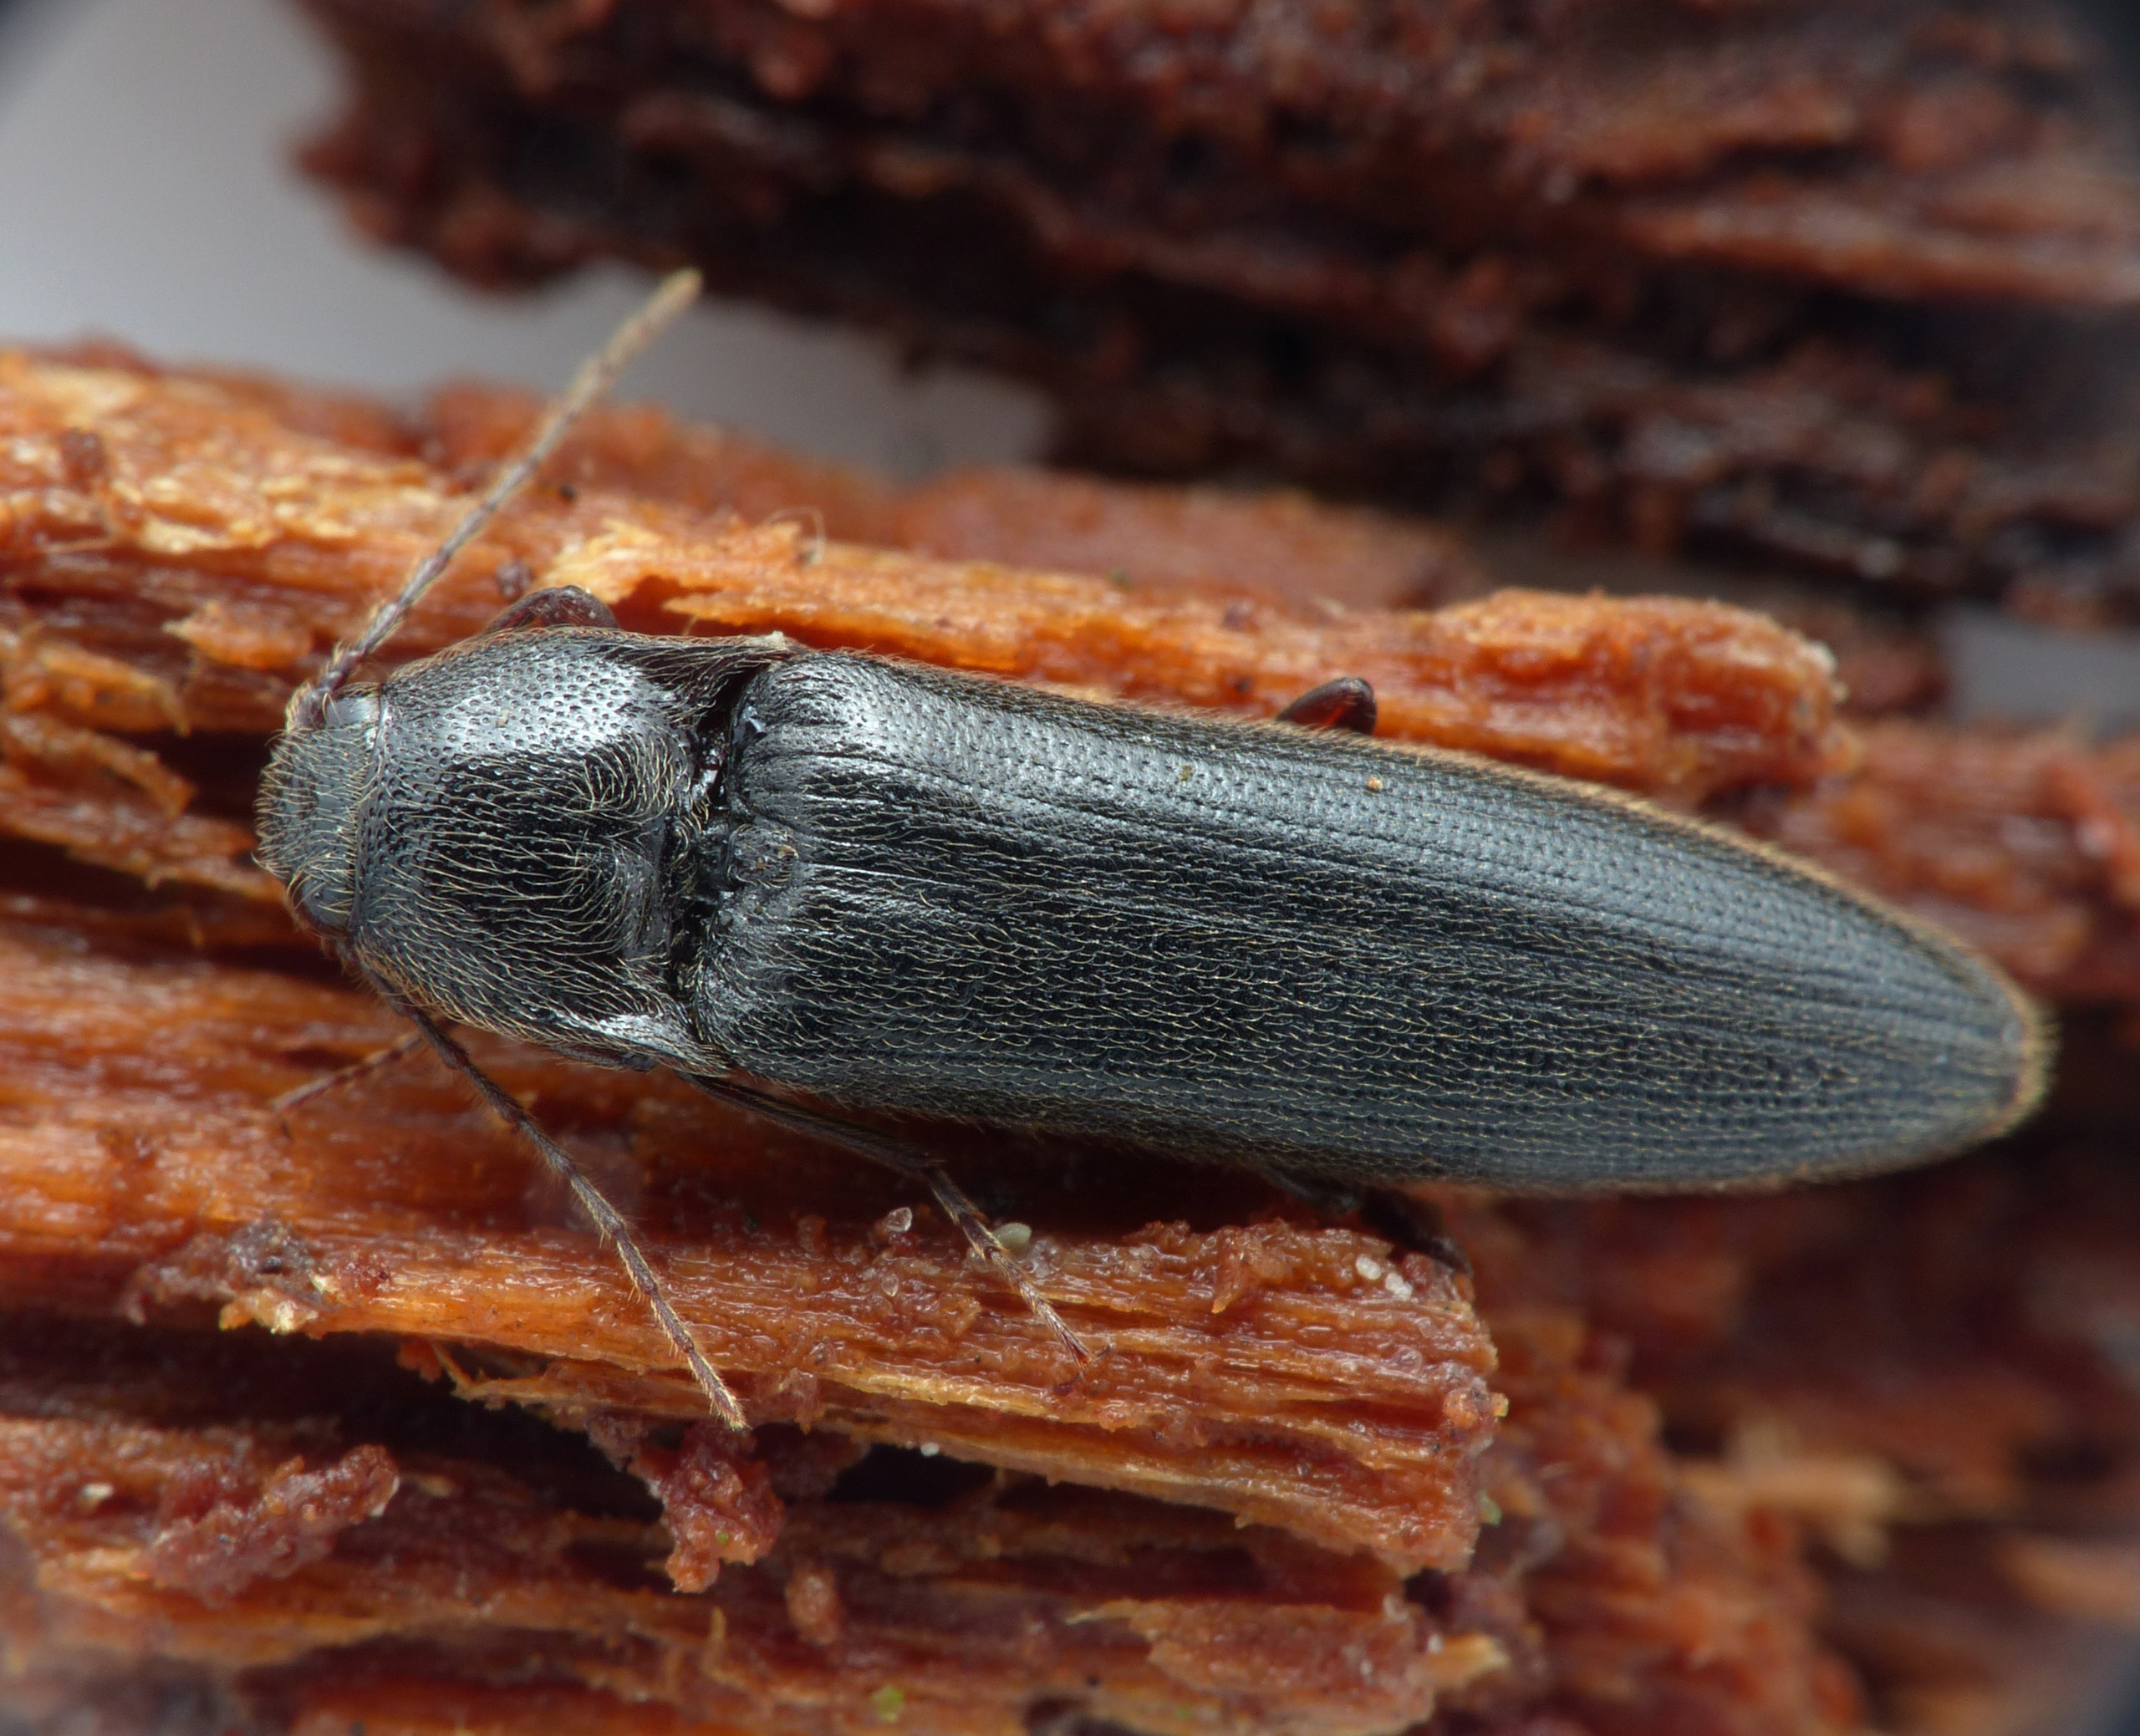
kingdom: Animalia
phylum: Arthropoda
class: Insecta
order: Coleoptera
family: Elateridae
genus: Melanotus
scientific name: Melanotus castanipes
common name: Stor sortsmælder
